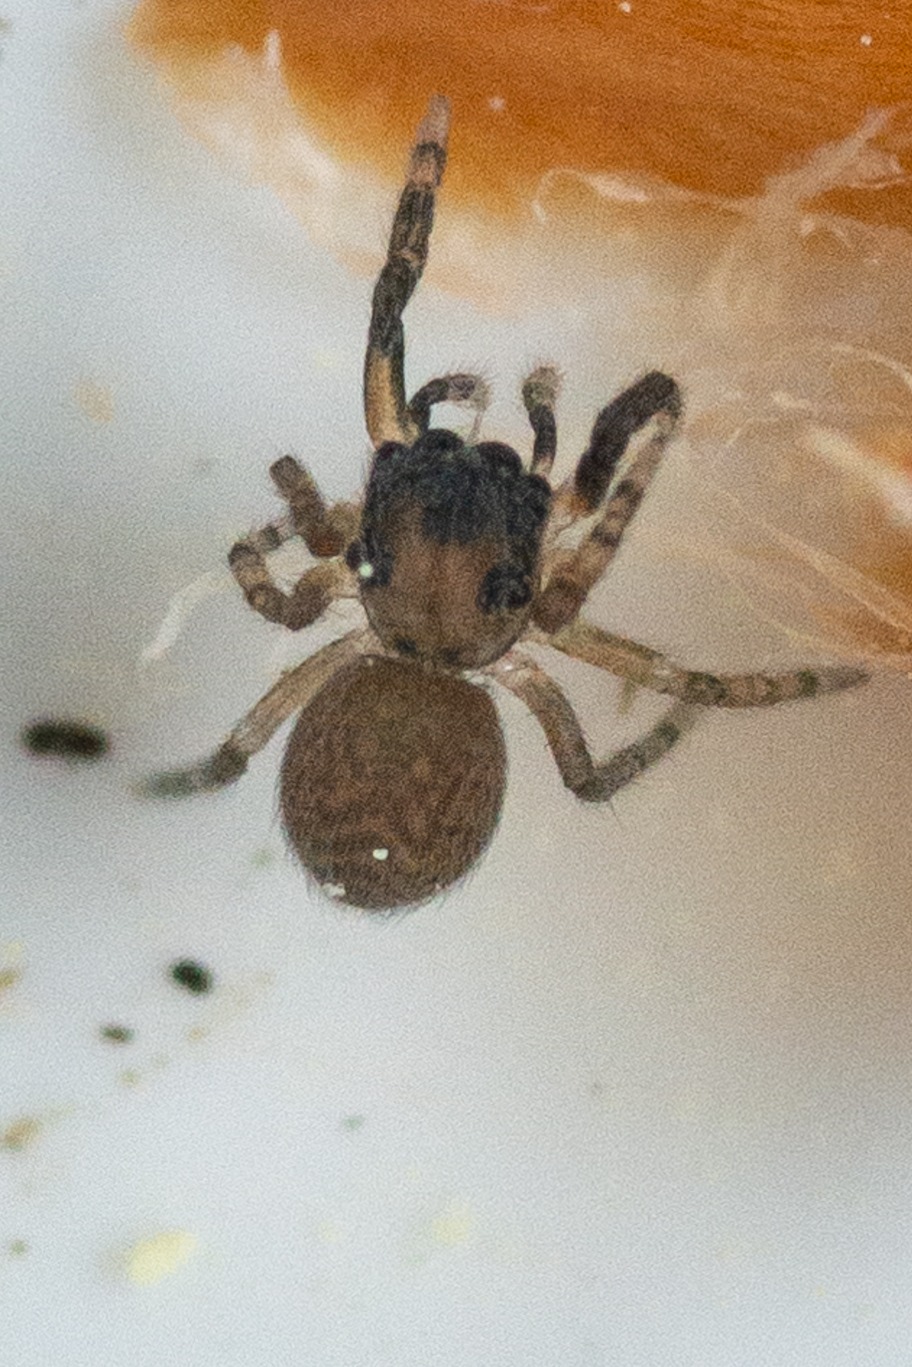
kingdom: Animalia
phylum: Arthropoda
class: Arachnida
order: Araneae
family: Salticidae
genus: Neon
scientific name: Neon reticulatus
